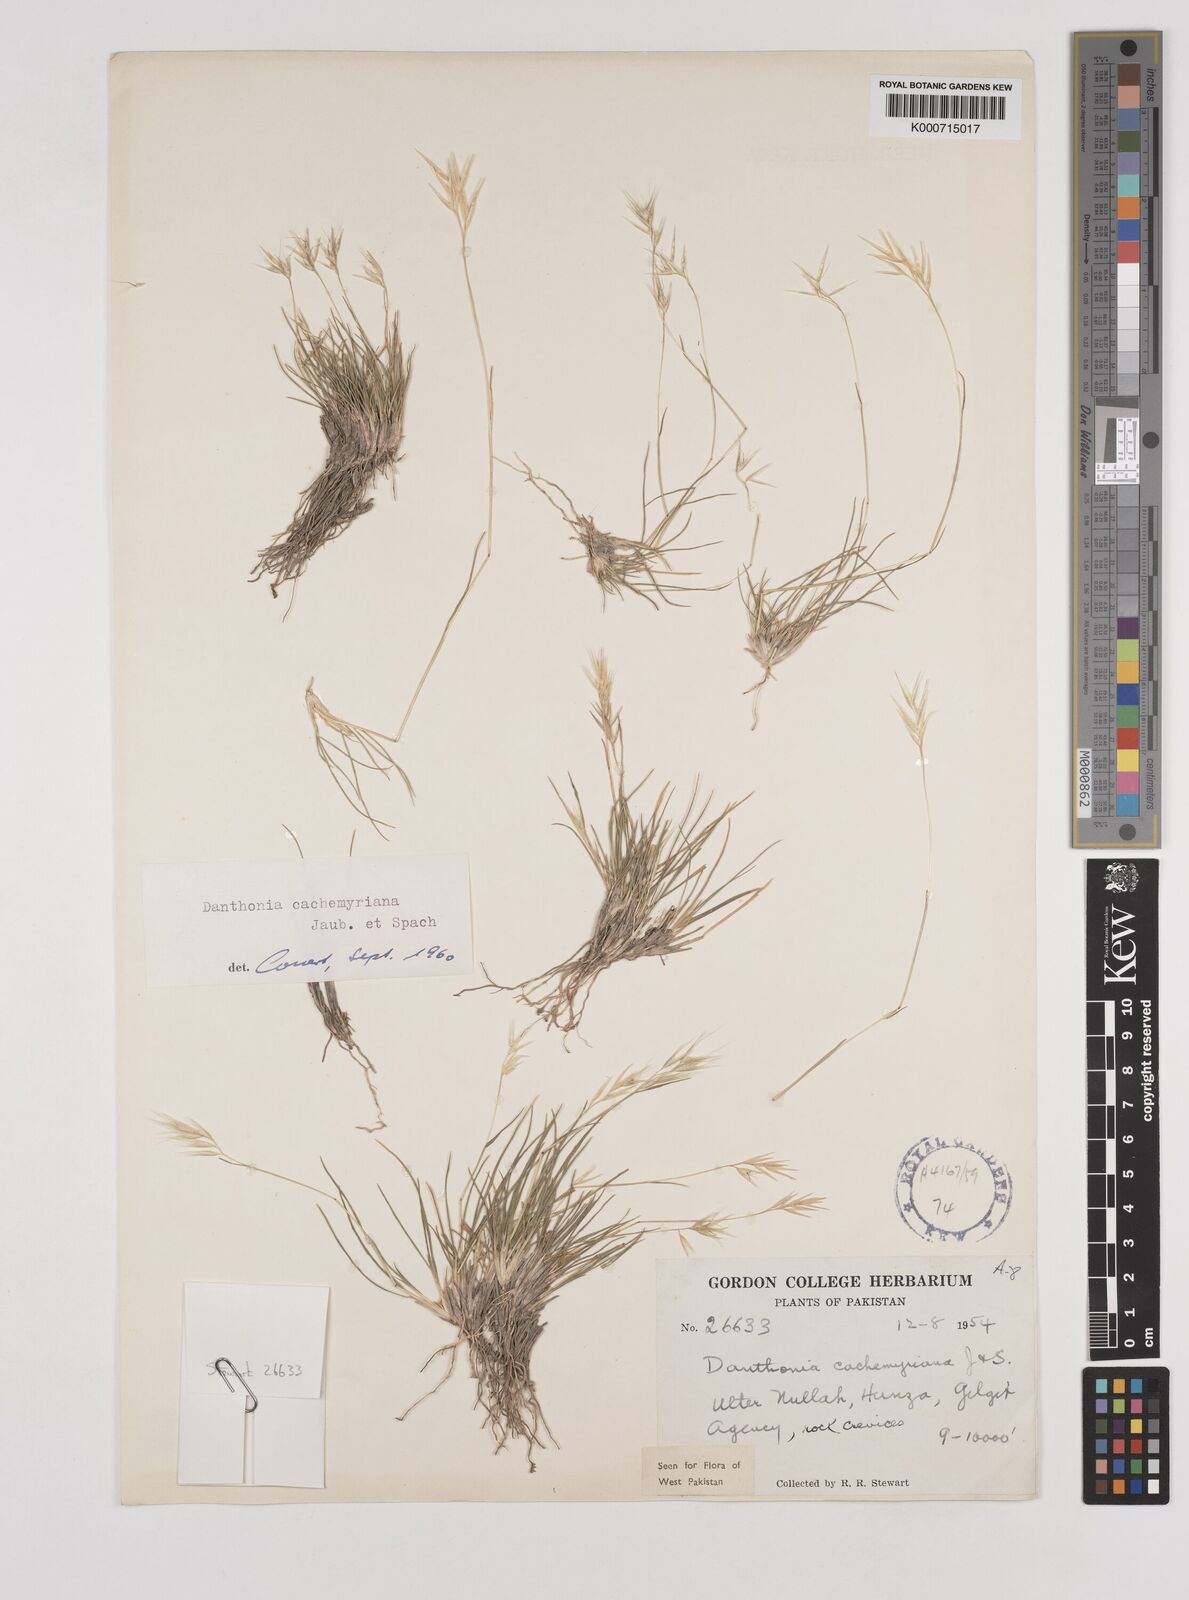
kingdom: Plantae
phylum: Tracheophyta
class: Liliopsida
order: Poales
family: Poaceae
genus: Rytidosperma
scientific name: Rytidosperma
